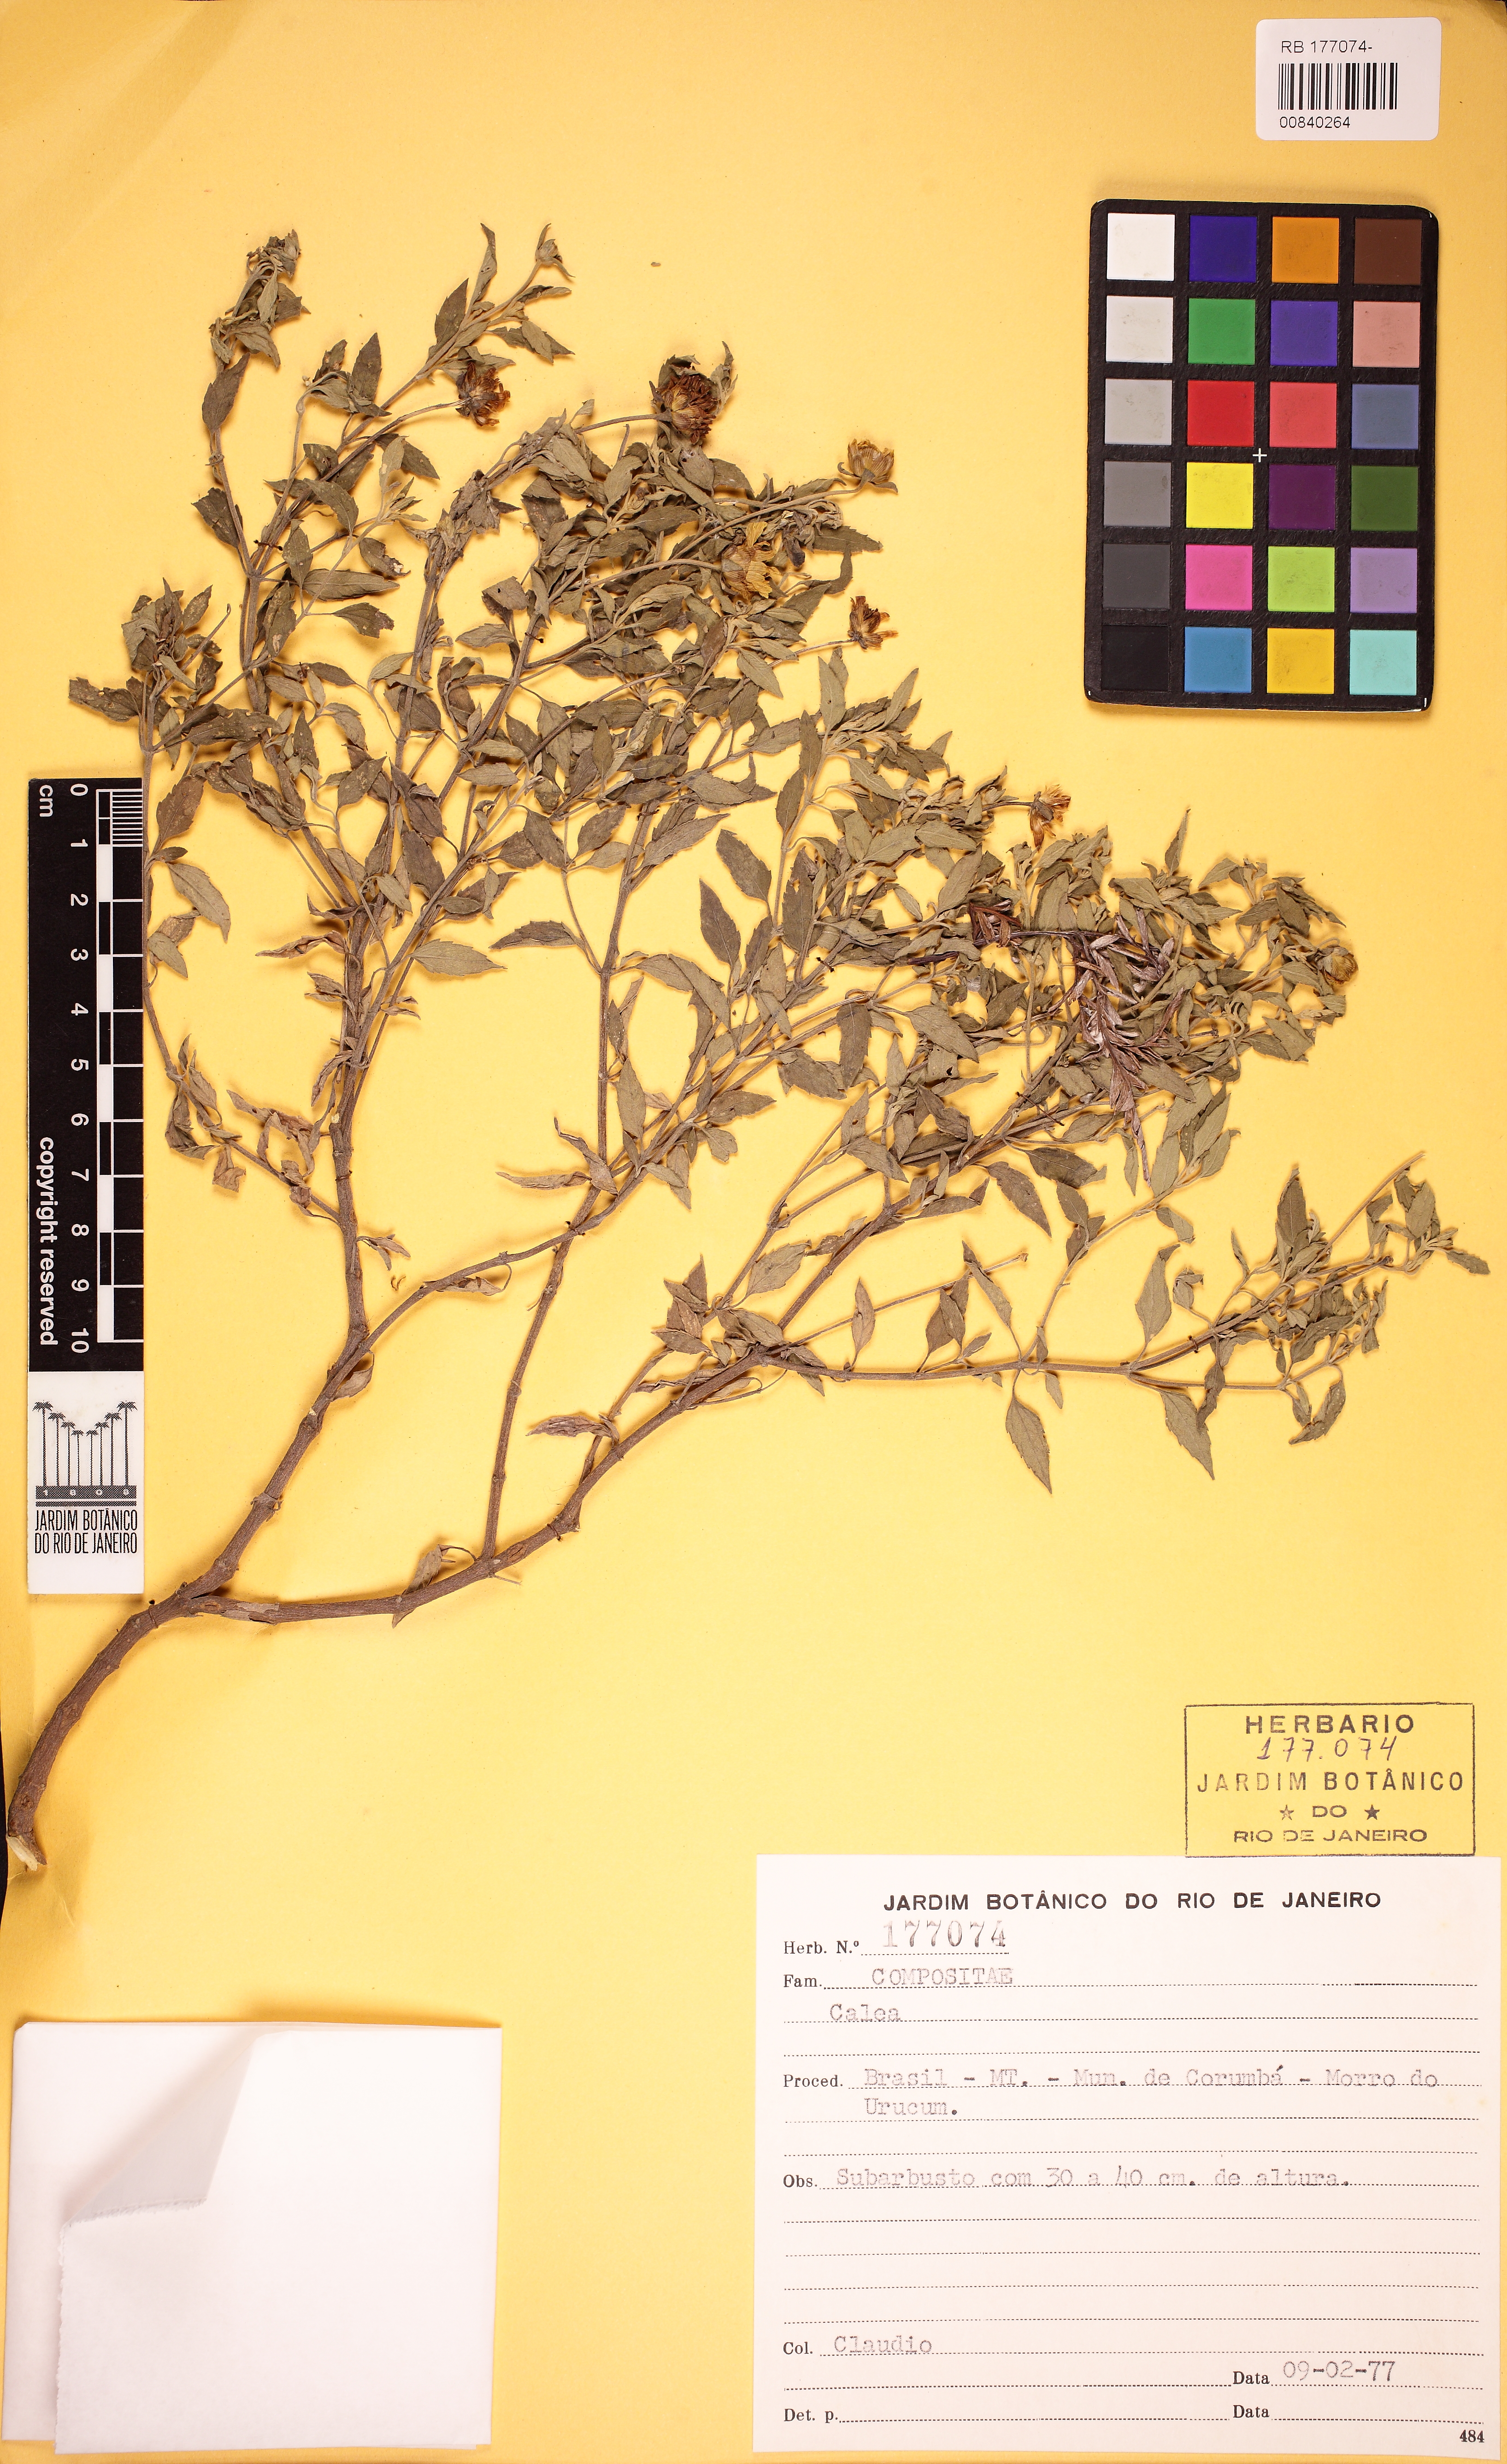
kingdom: Plantae
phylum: Tracheophyta
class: Magnoliopsida
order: Asterales
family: Asteraceae
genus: Calea
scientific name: Calea
